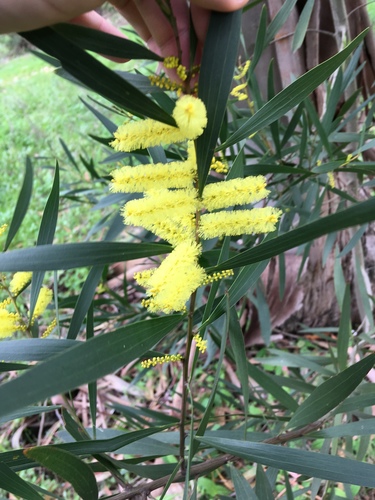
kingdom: Plantae
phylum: Tracheophyta
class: Magnoliopsida
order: Fabales
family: Fabaceae
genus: Acacia
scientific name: Acacia longifolia
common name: Sydney golden wattle
